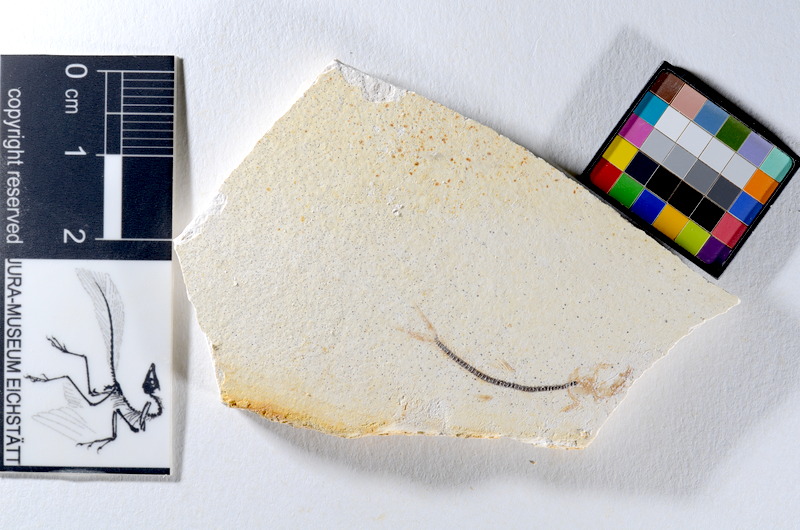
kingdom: Animalia
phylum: Chordata
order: Salmoniformes
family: Orthogonikleithridae
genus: Orthogonikleithrus
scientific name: Orthogonikleithrus hoelli
